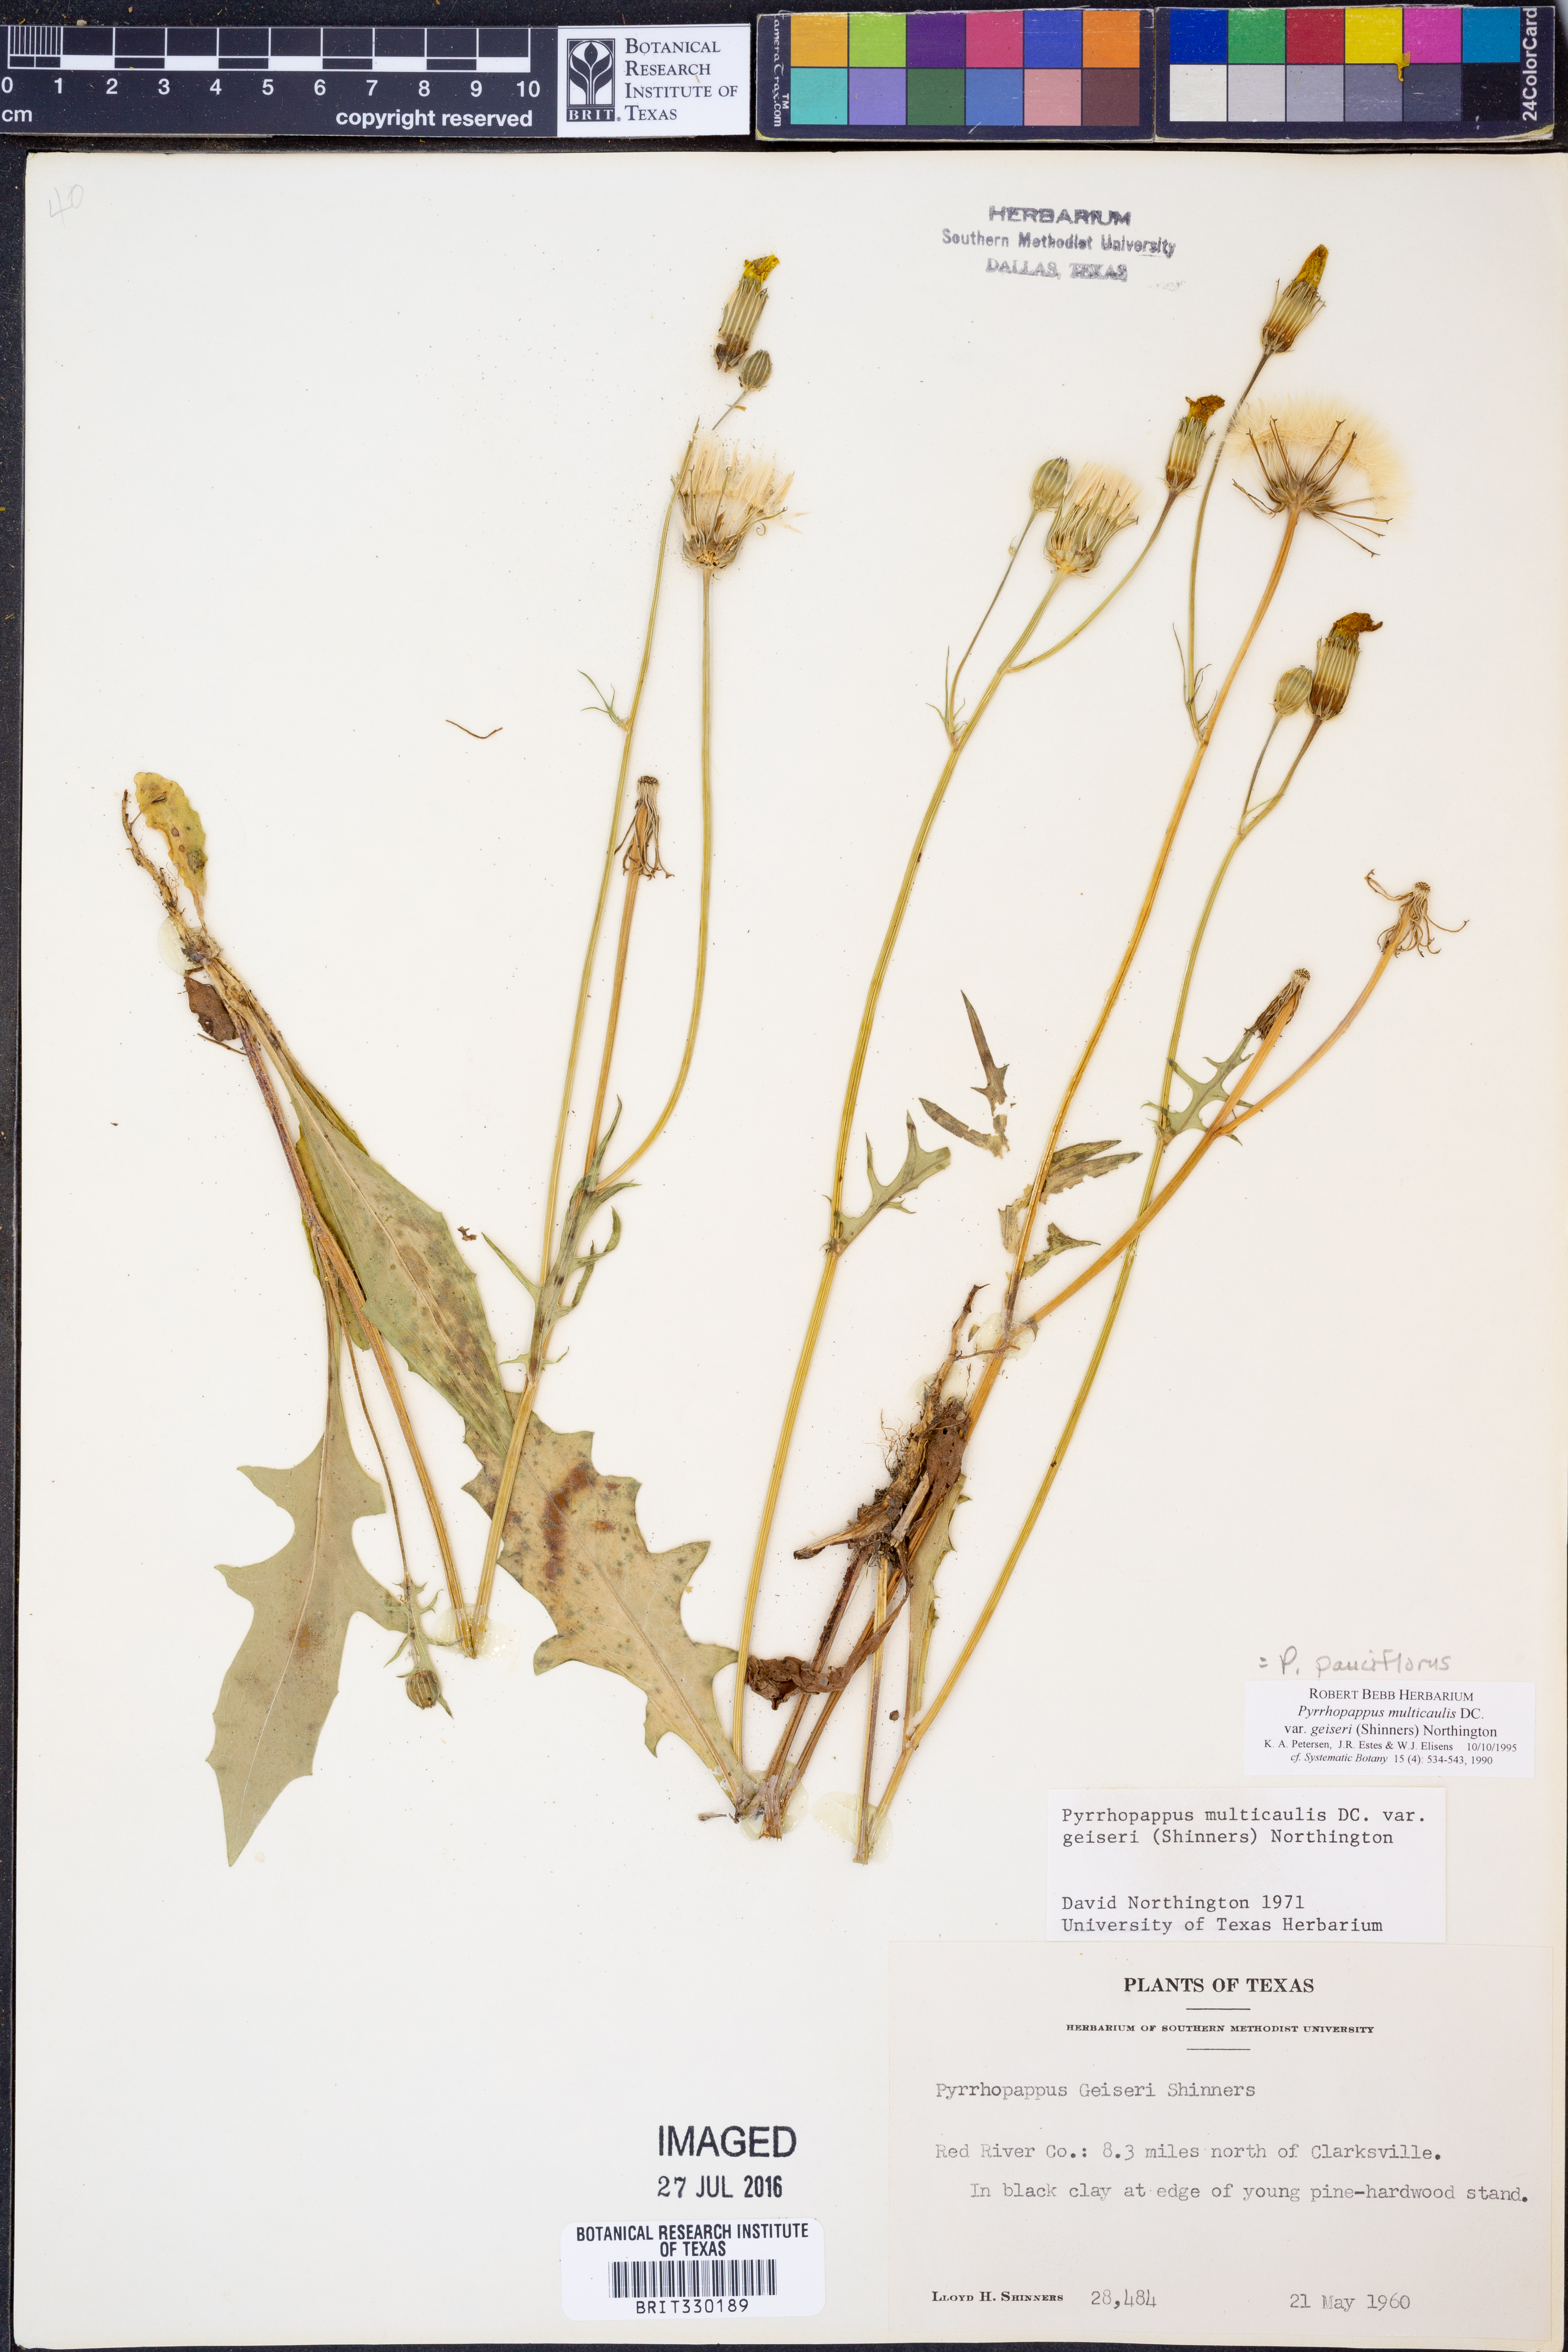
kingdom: Plantae
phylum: Tracheophyta
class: Magnoliopsida
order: Asterales
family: Asteraceae
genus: Pyrrhopappus
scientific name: Pyrrhopappus pauciflorus
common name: Texas false dandelion
